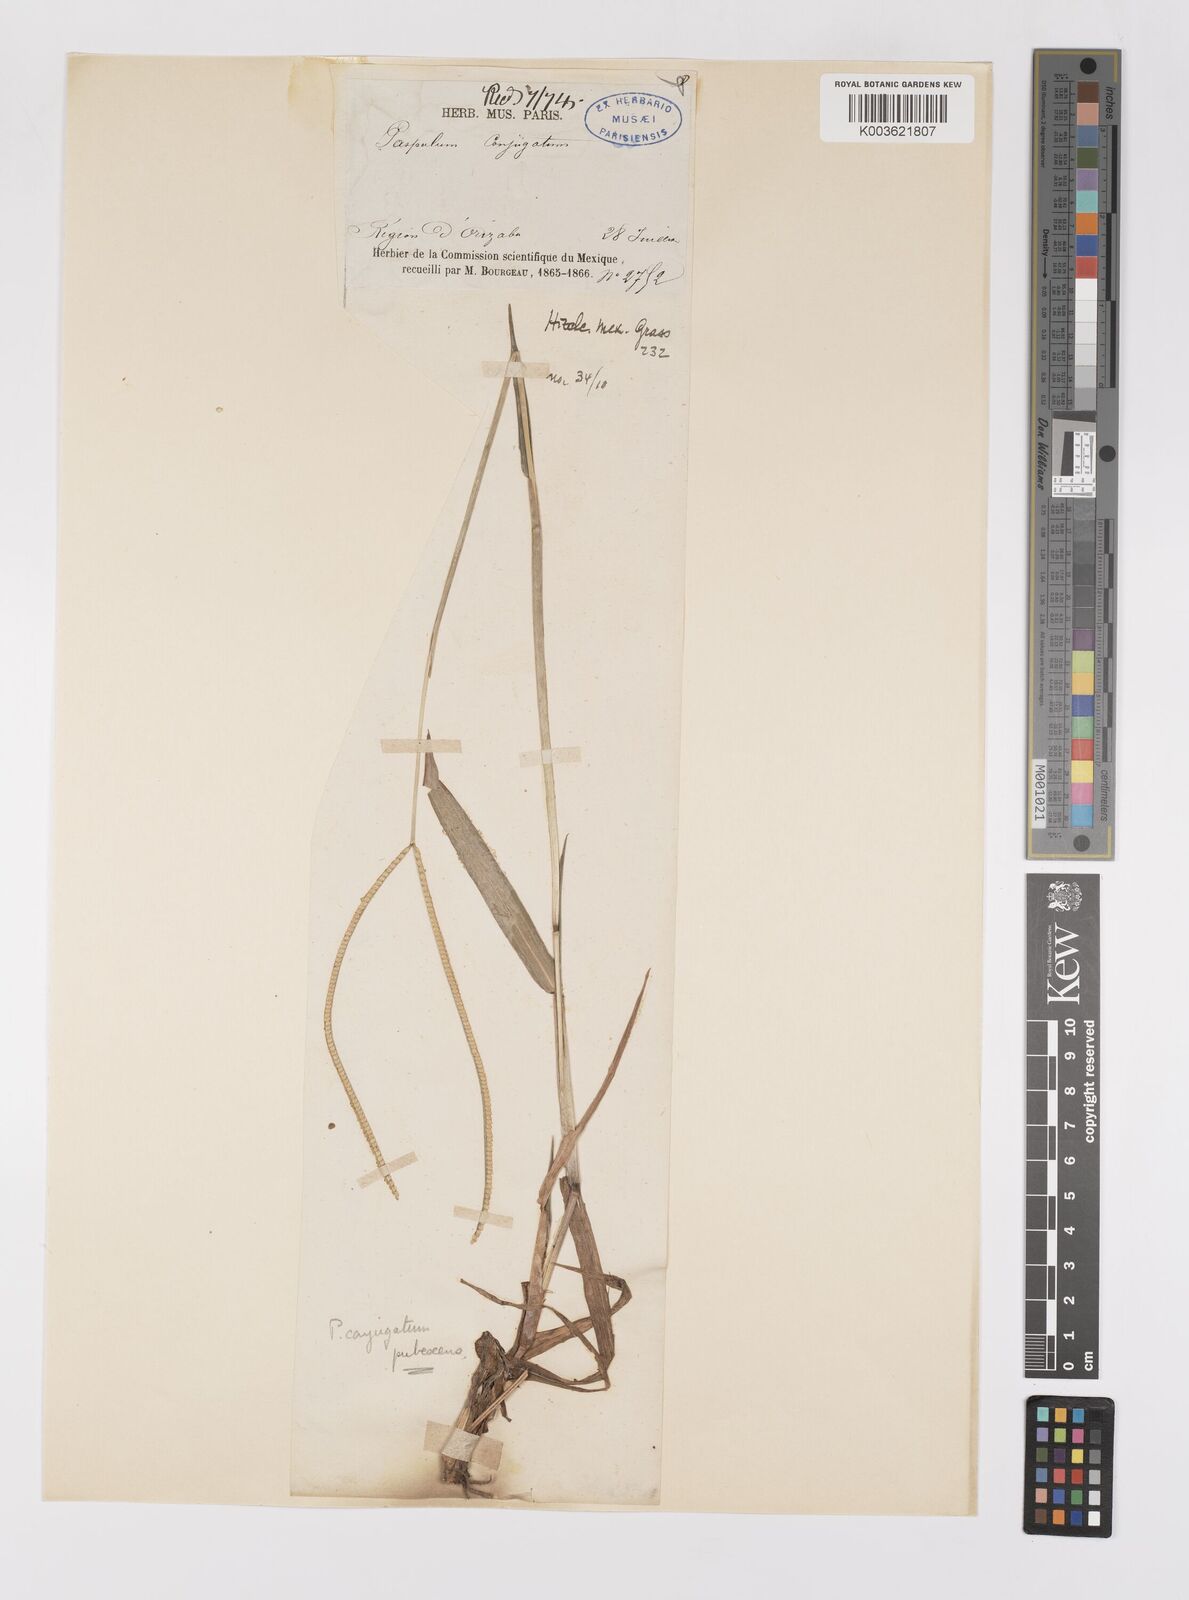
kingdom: Plantae
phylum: Tracheophyta
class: Liliopsida
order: Poales
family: Poaceae
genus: Paspalum
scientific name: Paspalum conjugatum
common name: Hilograss
